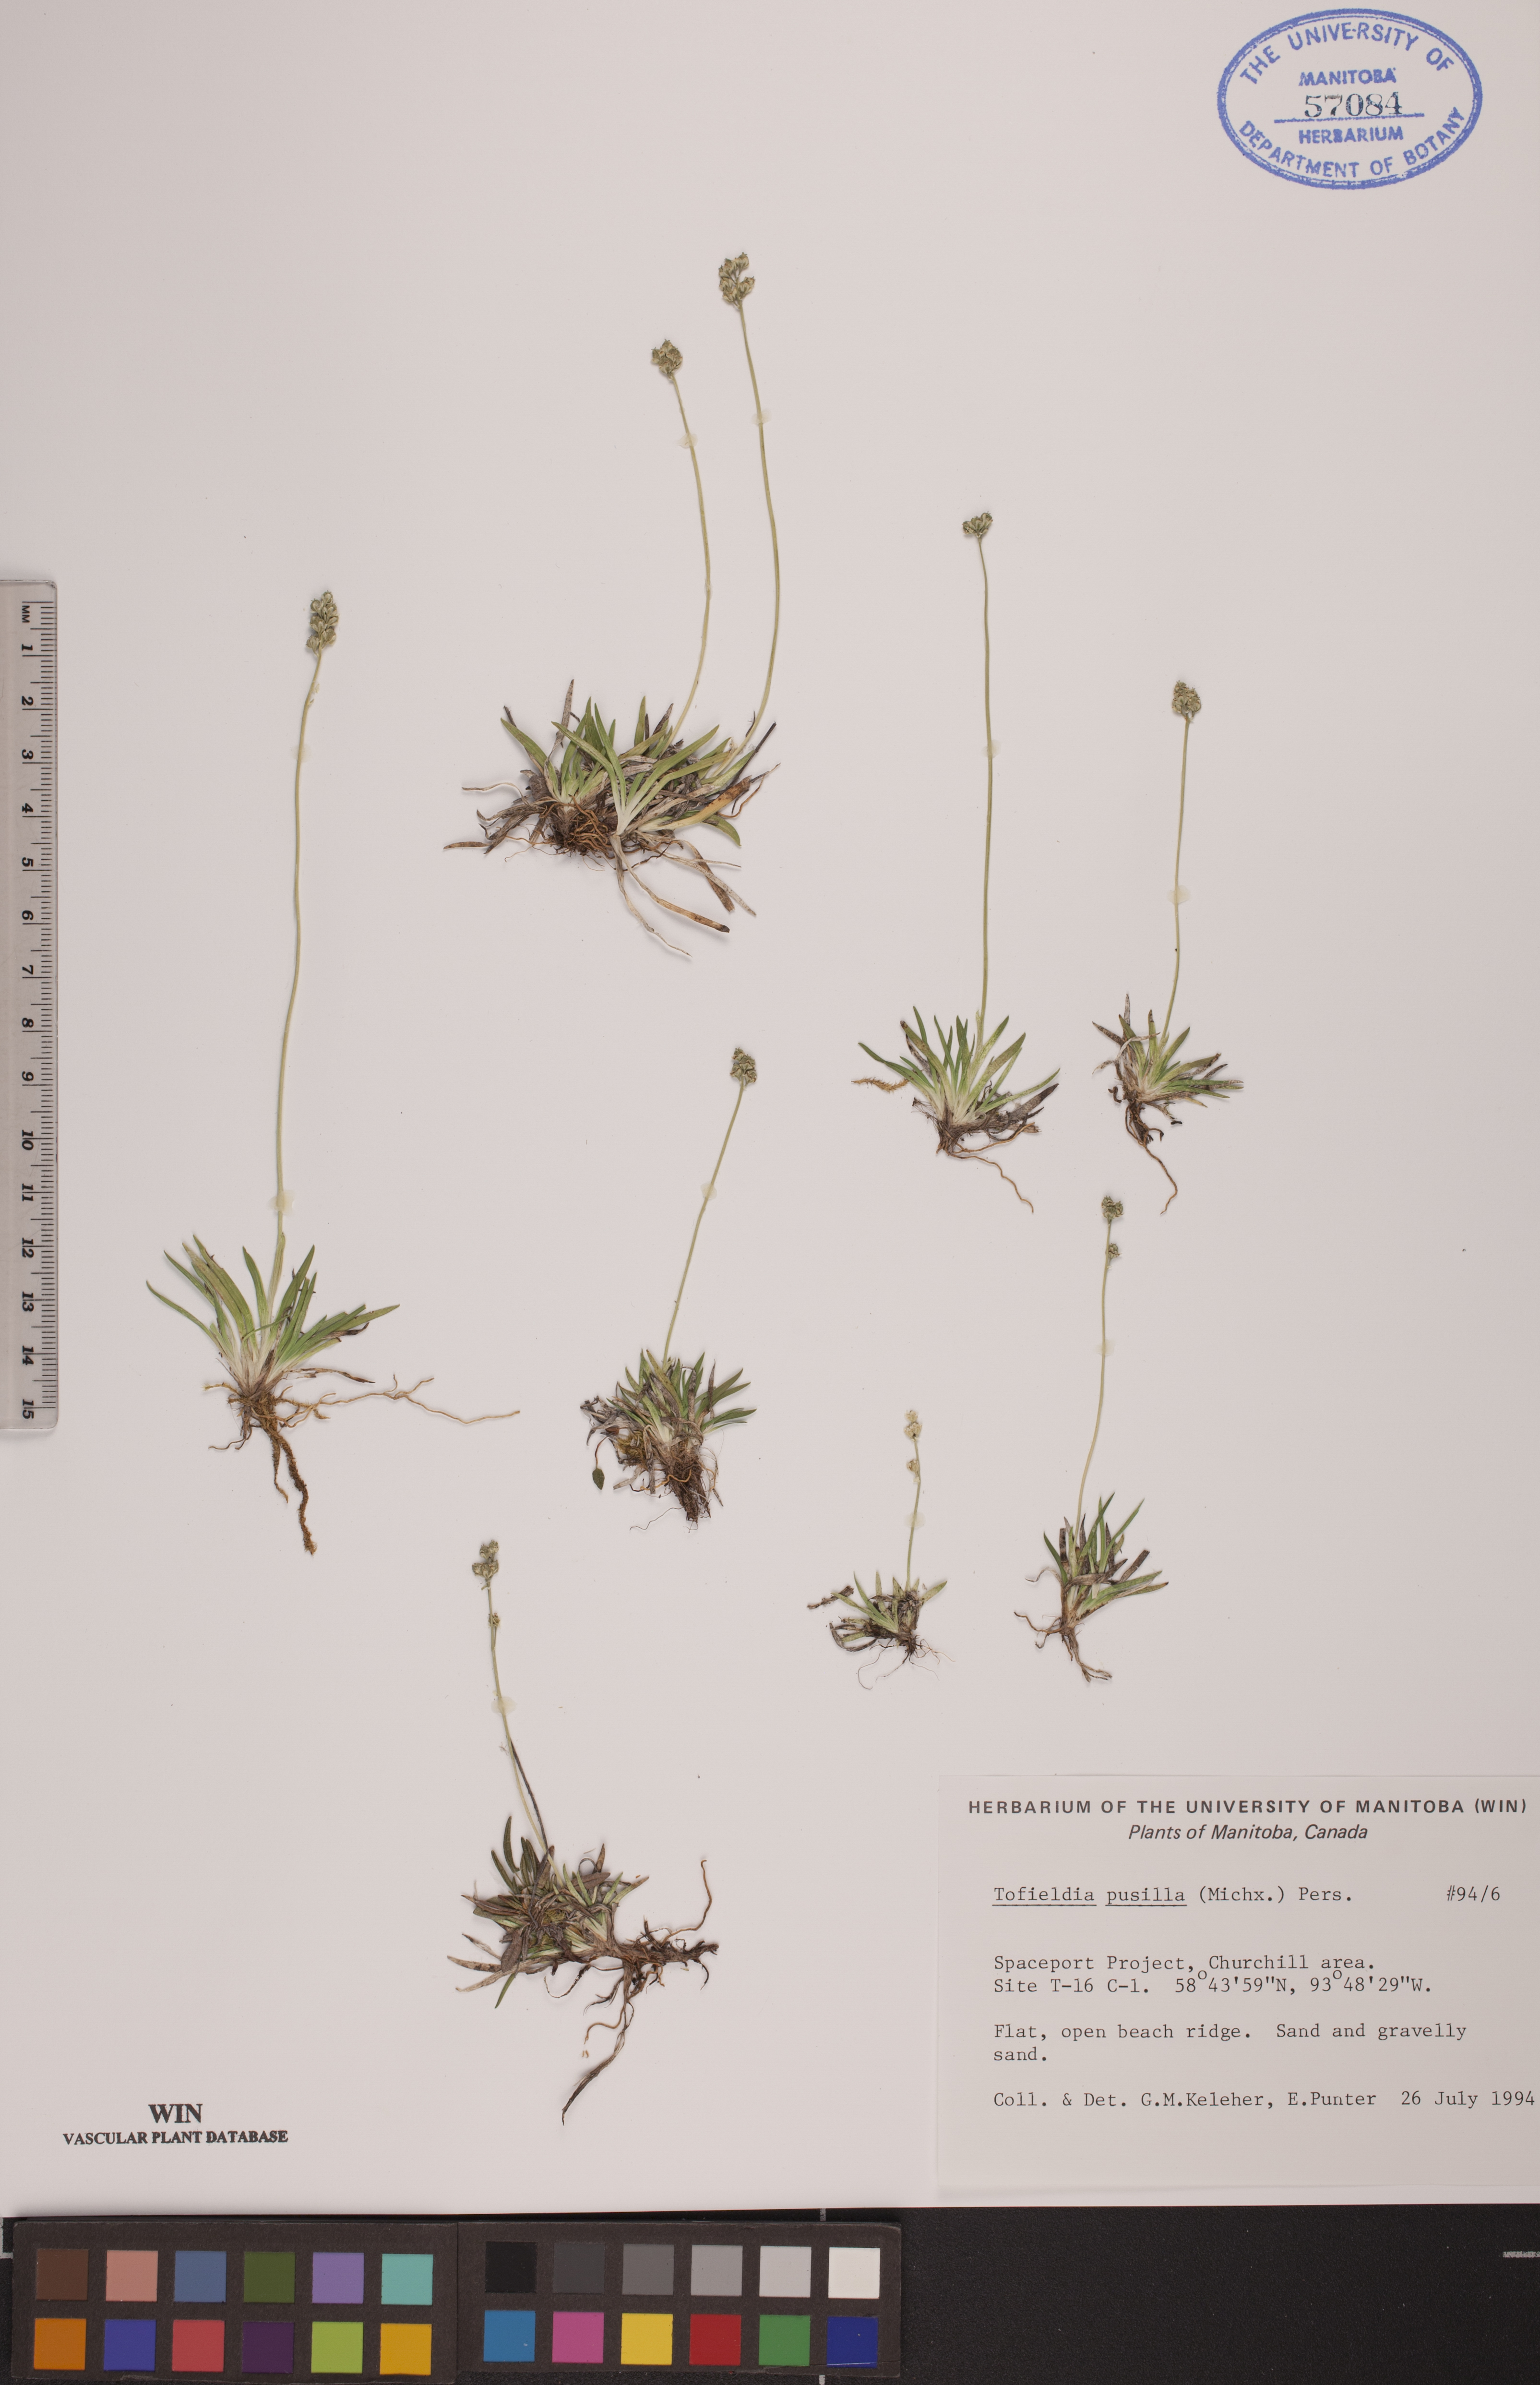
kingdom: Plantae
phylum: Tracheophyta
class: Liliopsida
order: Alismatales
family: Tofieldiaceae
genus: Tofieldia
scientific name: Tofieldia pusilla
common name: Scottish false asphodel
